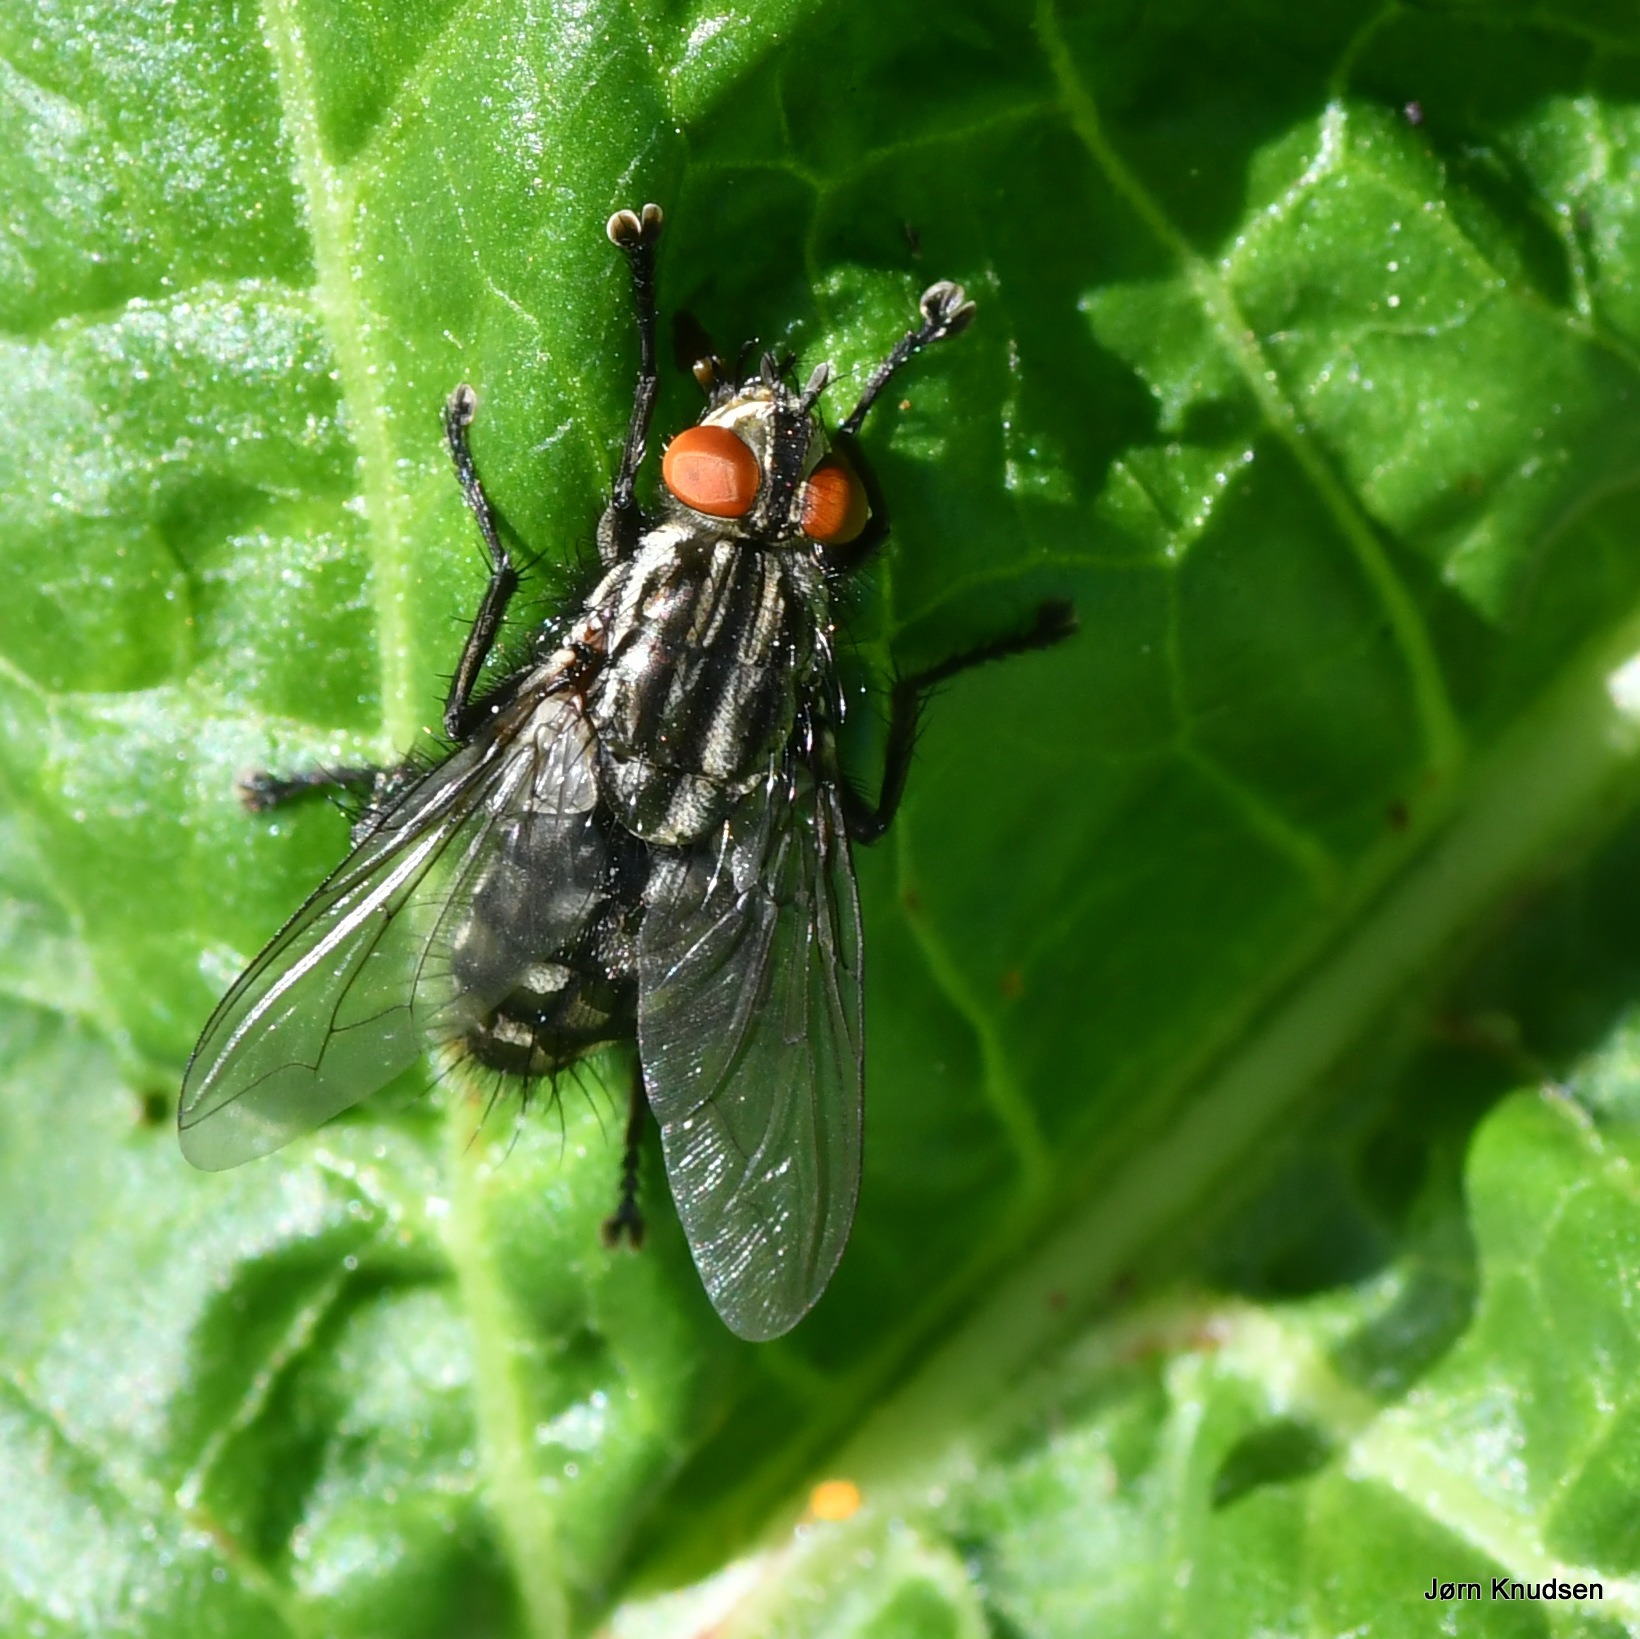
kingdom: Animalia
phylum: Arthropoda
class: Insecta
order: Diptera
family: Sarcophagidae
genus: Sarcophaga
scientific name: Sarcophaga
